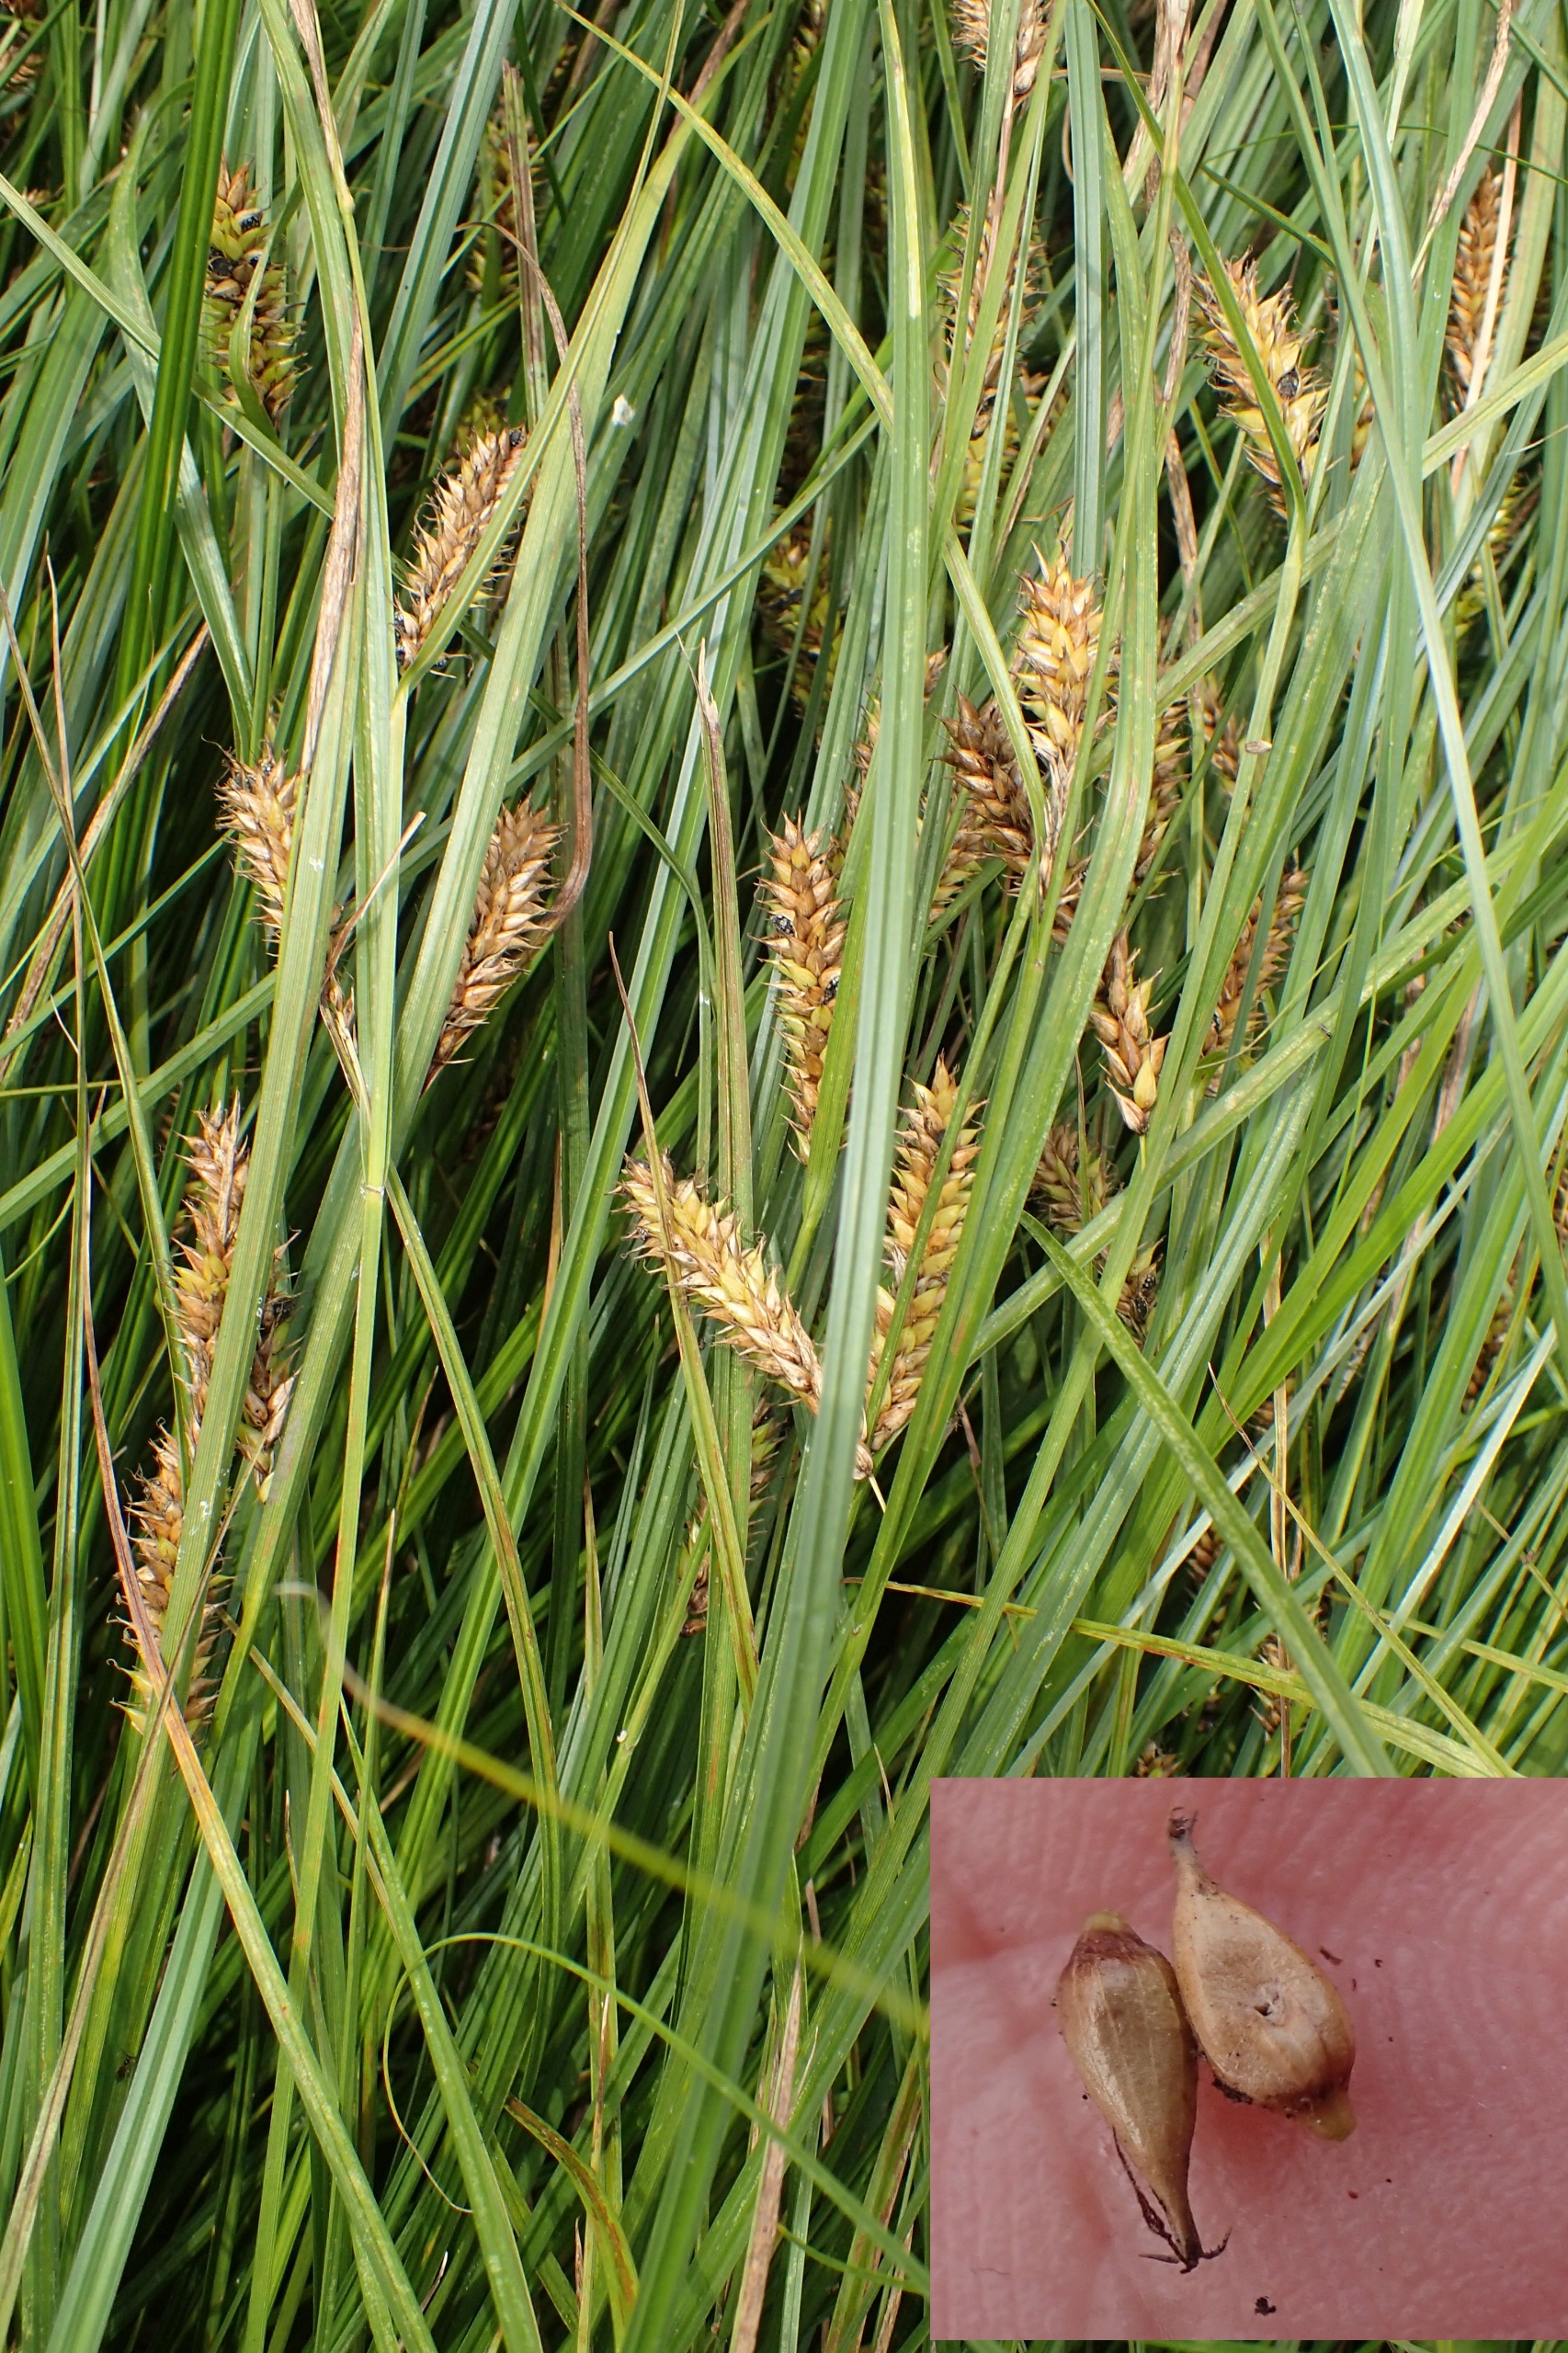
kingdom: Plantae
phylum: Tracheophyta
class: Liliopsida
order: Poales
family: Cyperaceae
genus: Carex
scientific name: Carex vesicaria
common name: Blære-star
